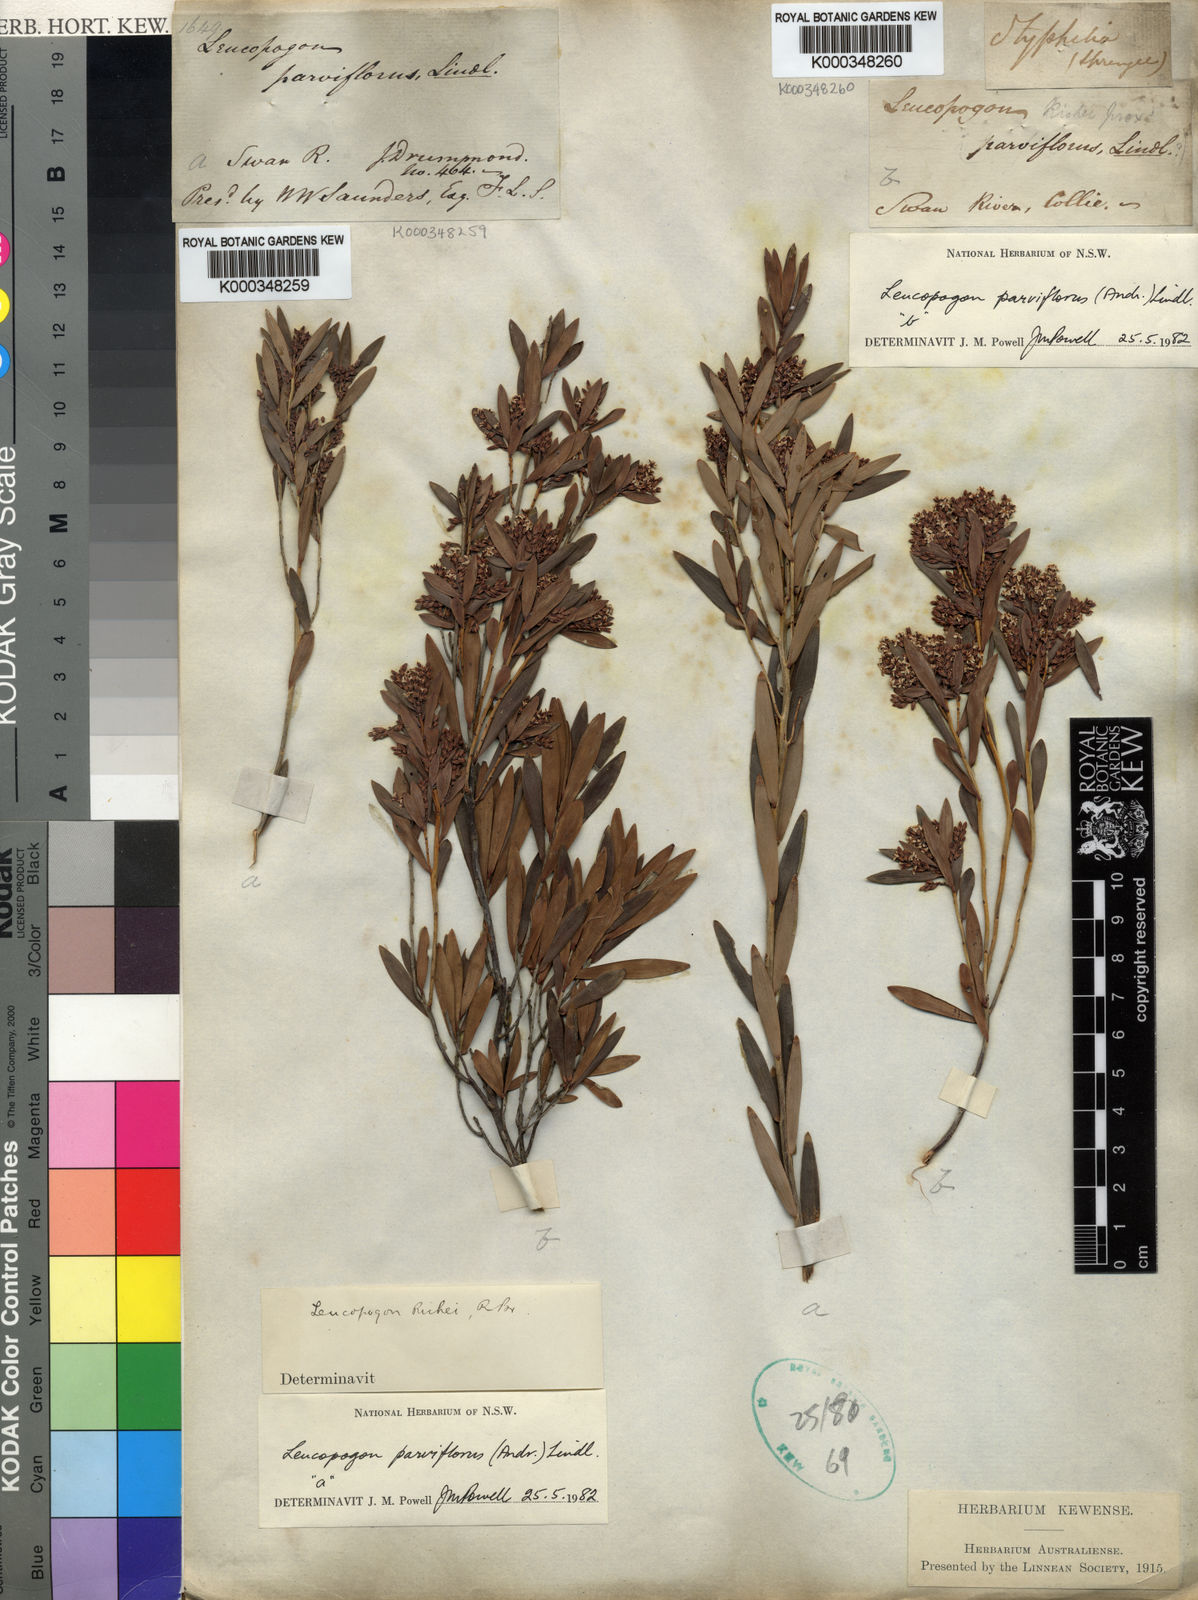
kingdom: Plantae
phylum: Tracheophyta
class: Magnoliopsida
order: Ericales
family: Ericaceae
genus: Leptecophylla
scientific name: Leptecophylla parvifolia
